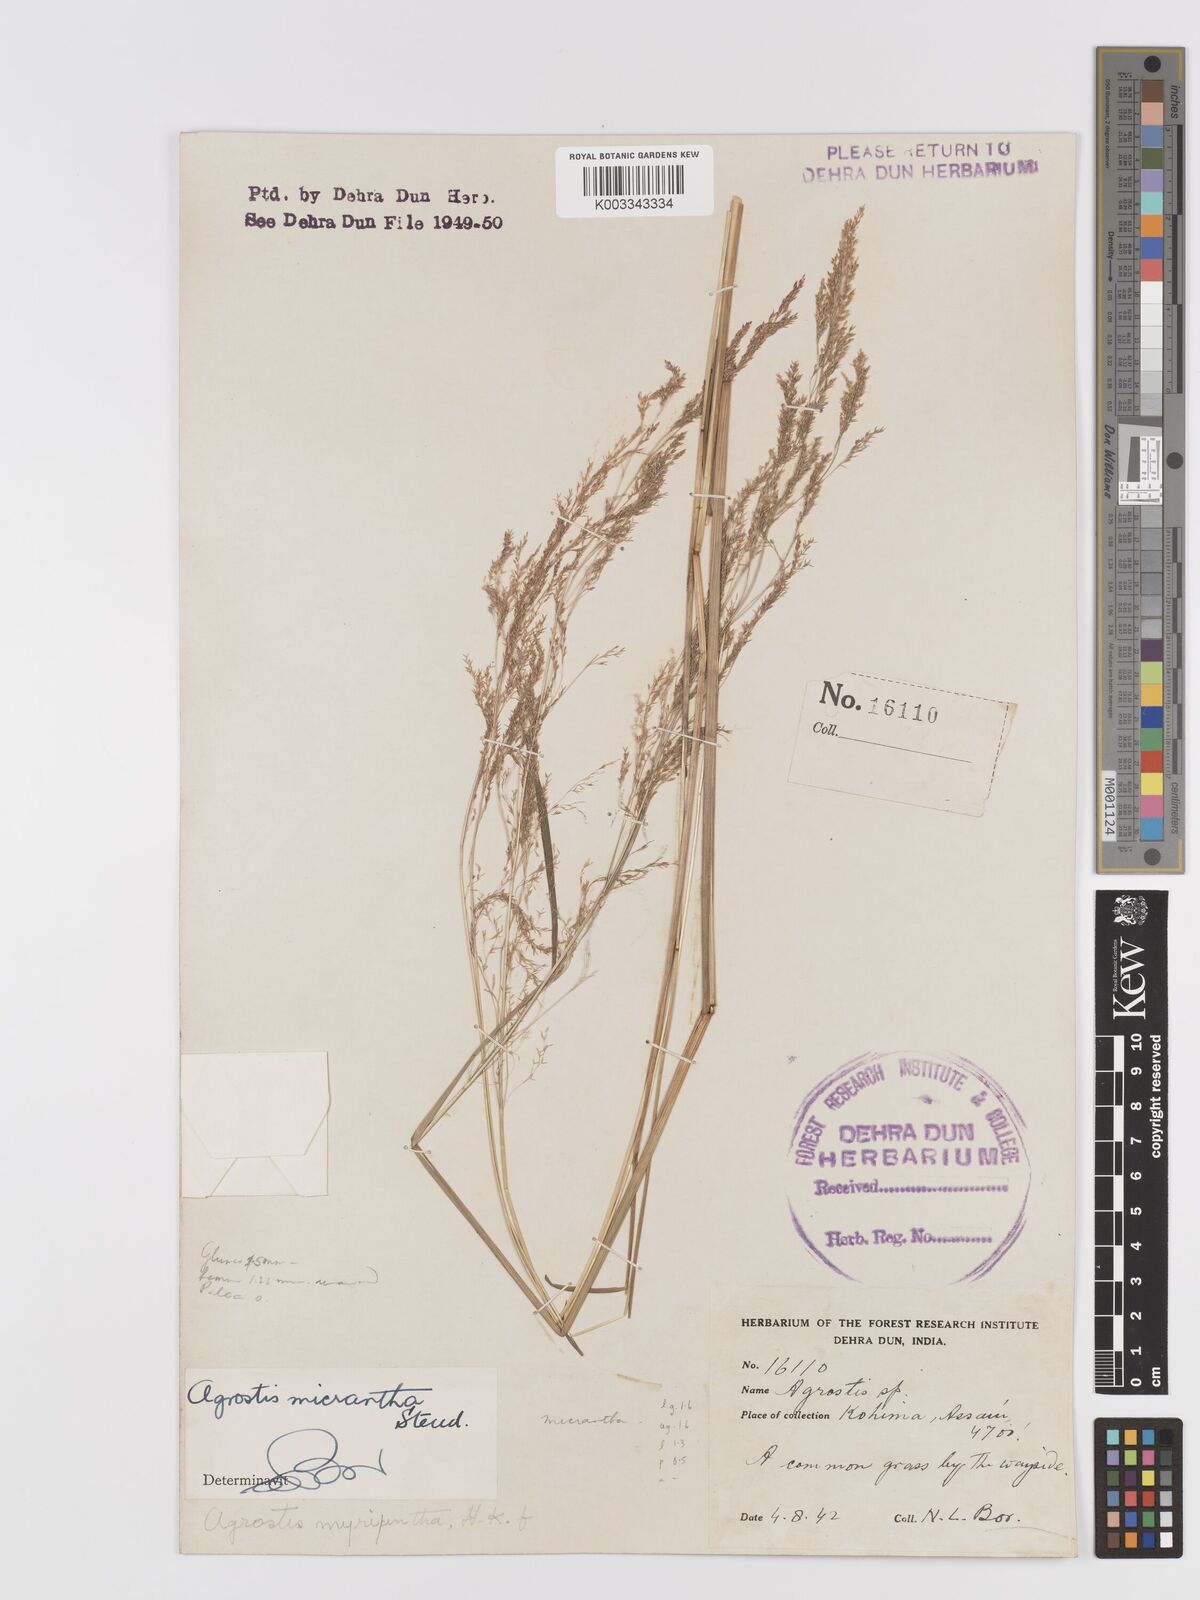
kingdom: Plantae
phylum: Tracheophyta
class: Liliopsida
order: Poales
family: Poaceae
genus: Agrostis
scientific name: Agrostis micrantha
